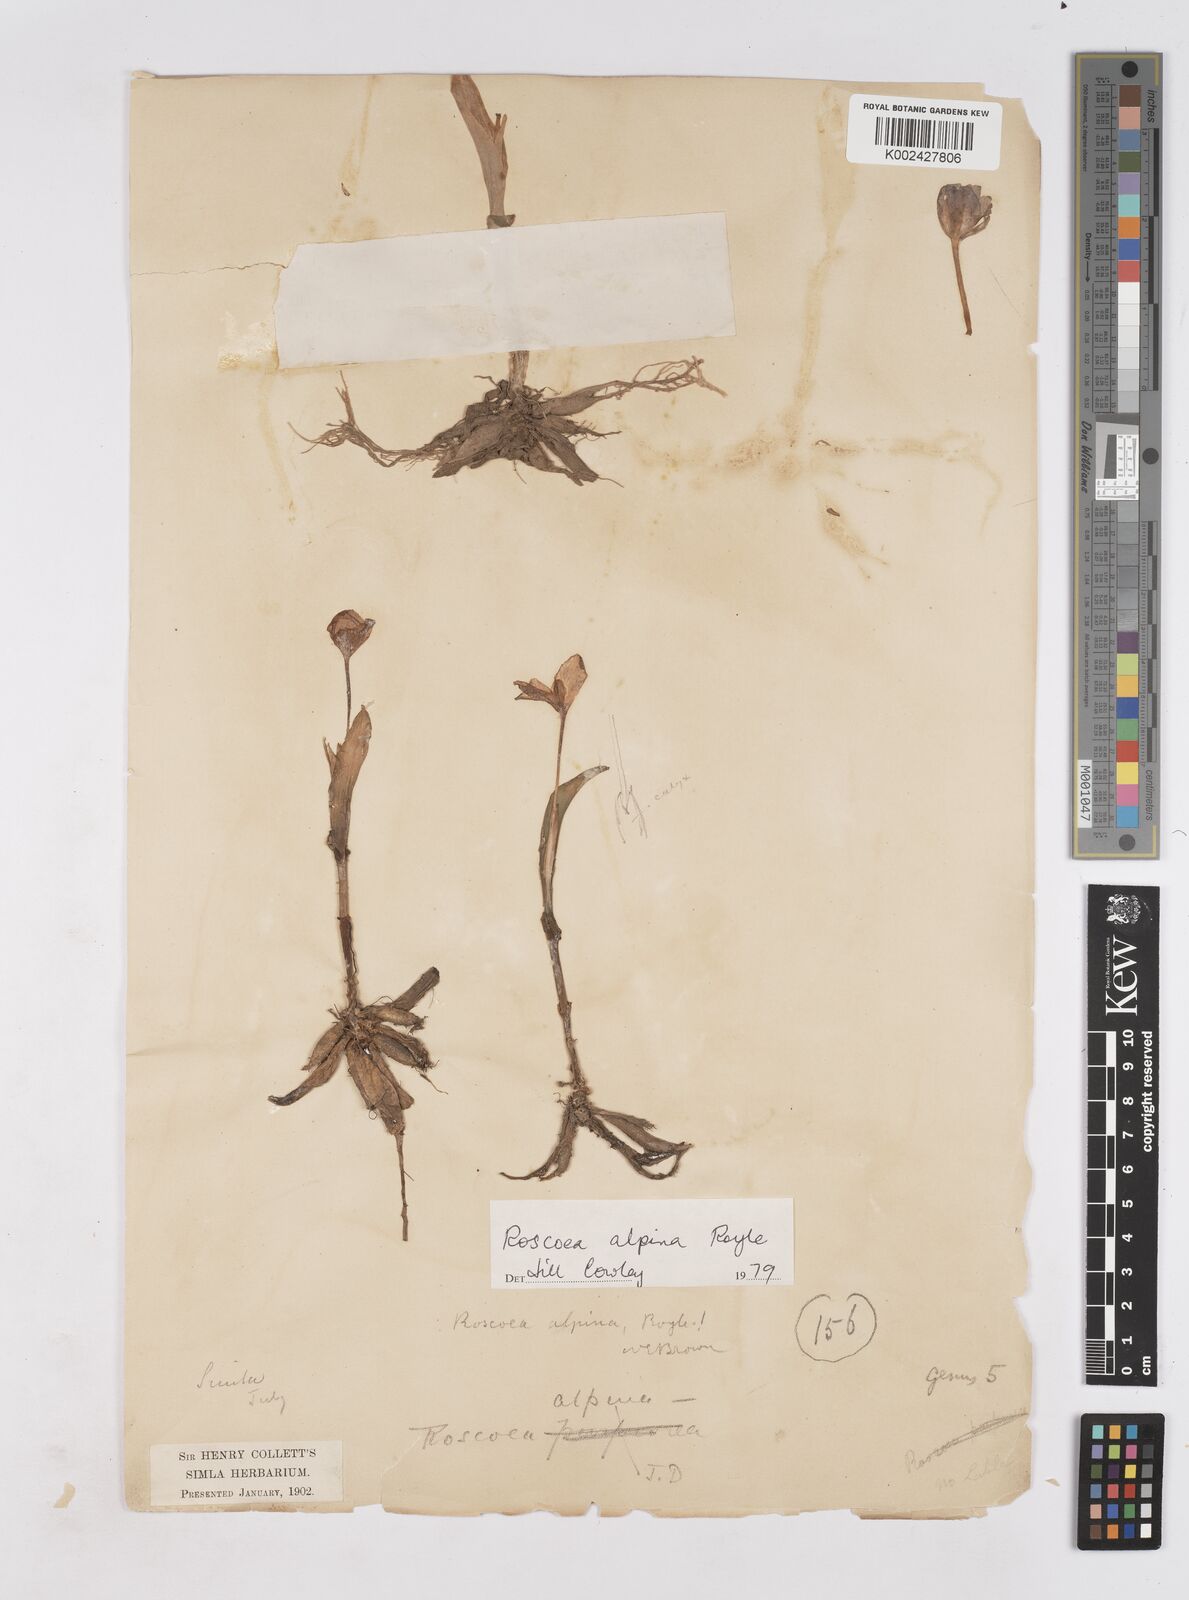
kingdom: Plantae
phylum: Tracheophyta
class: Liliopsida
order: Zingiberales
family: Zingiberaceae
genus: Roscoea
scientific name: Roscoea alpina
